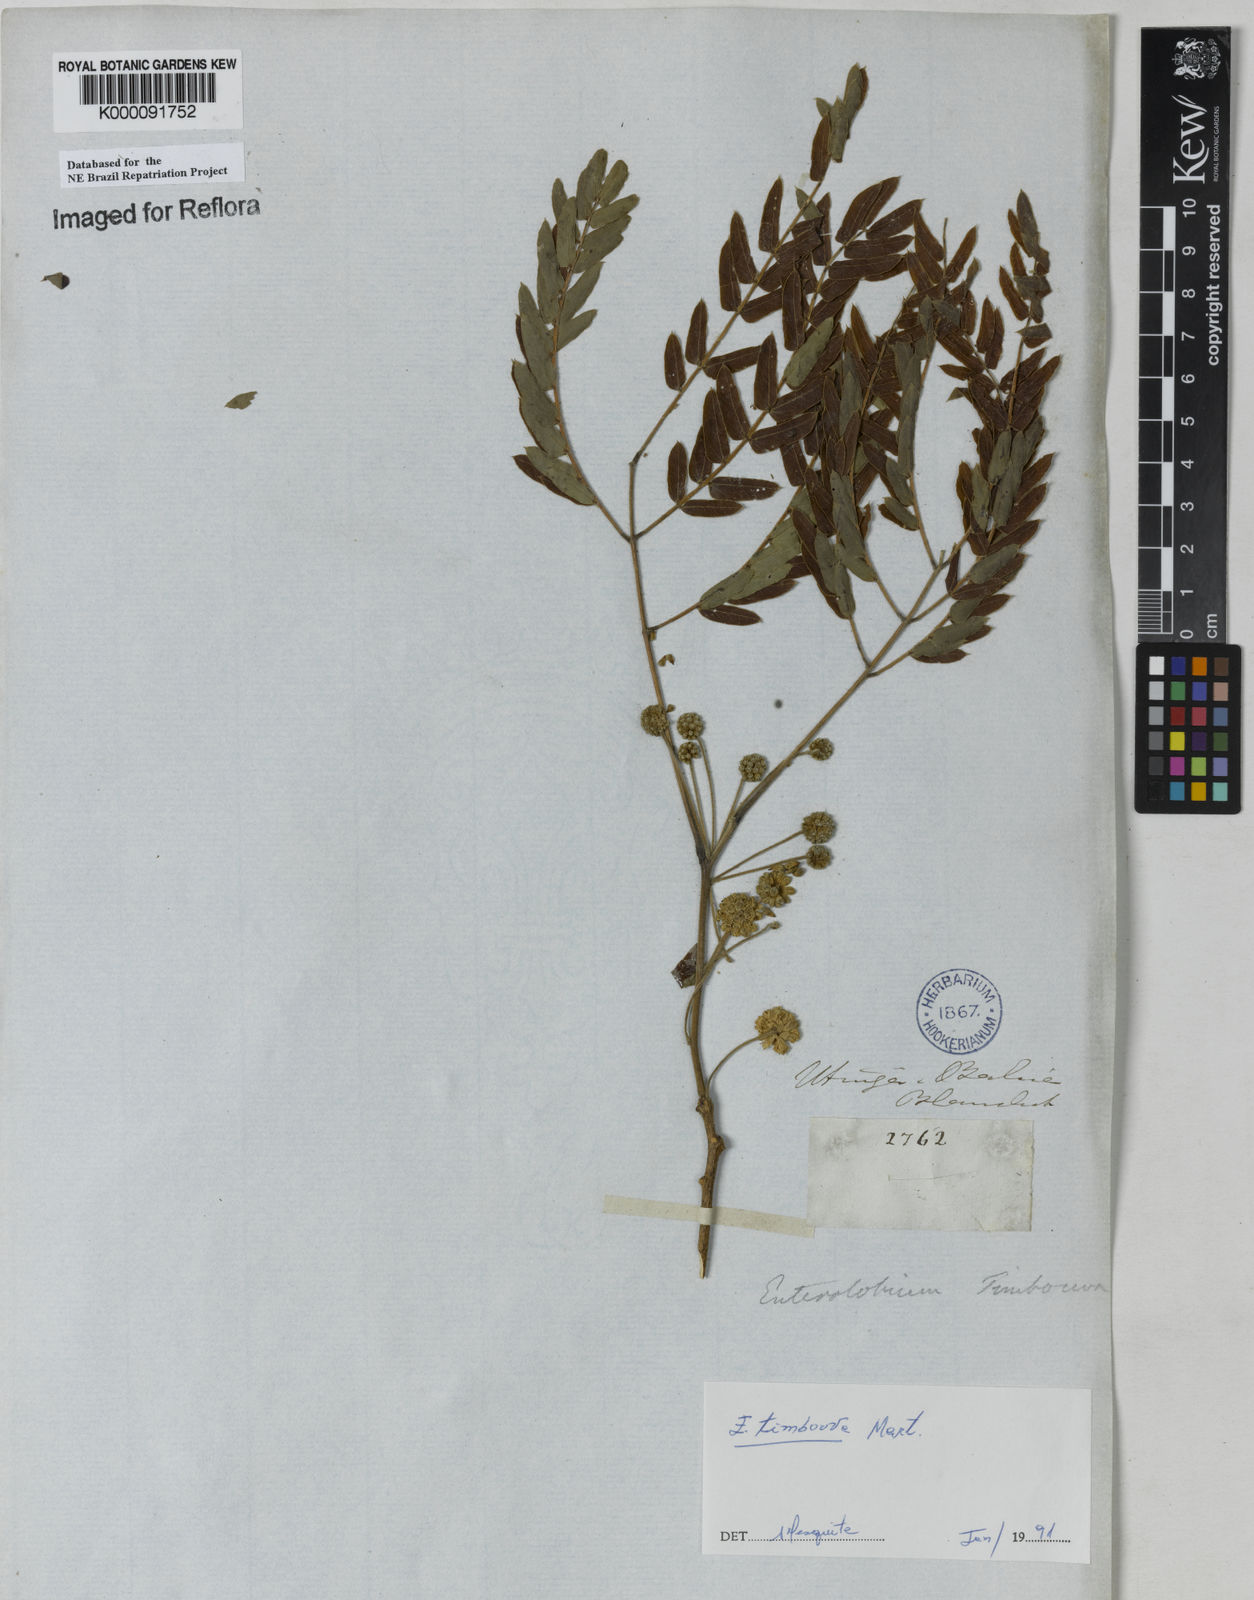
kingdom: Plantae
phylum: Tracheophyta
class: Magnoliopsida
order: Fabales
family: Fabaceae
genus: Enterolobium
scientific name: Enterolobium timbouva
